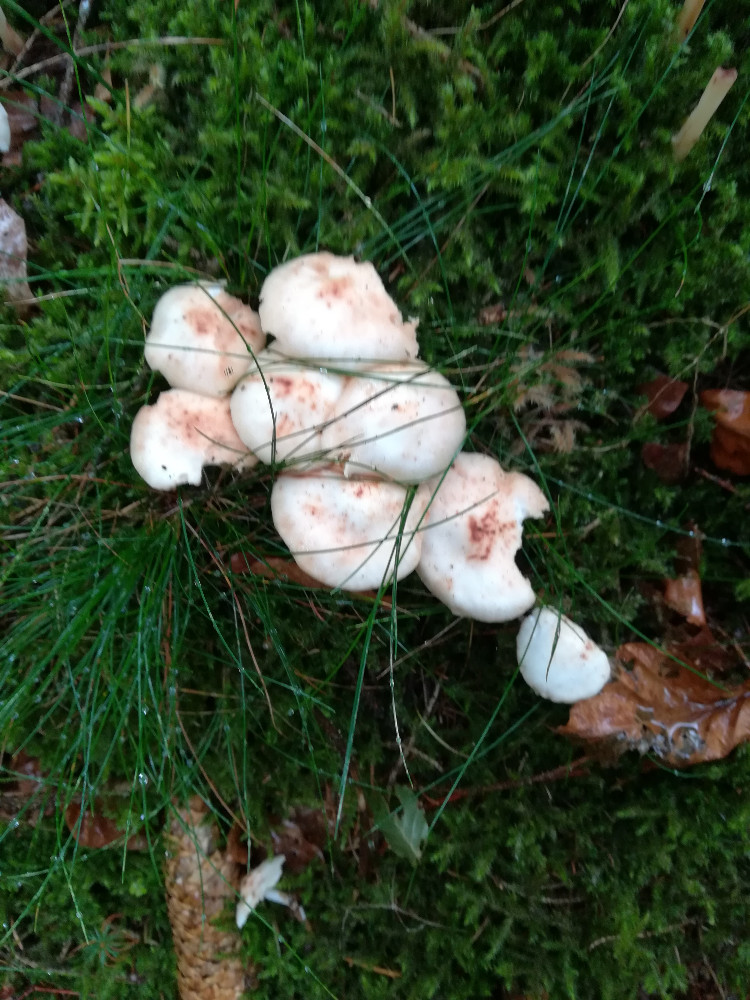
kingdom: Fungi
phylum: Basidiomycota
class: Agaricomycetes
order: Agaricales
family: Omphalotaceae
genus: Rhodocollybia
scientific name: Rhodocollybia maculata
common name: plettet fladhat
